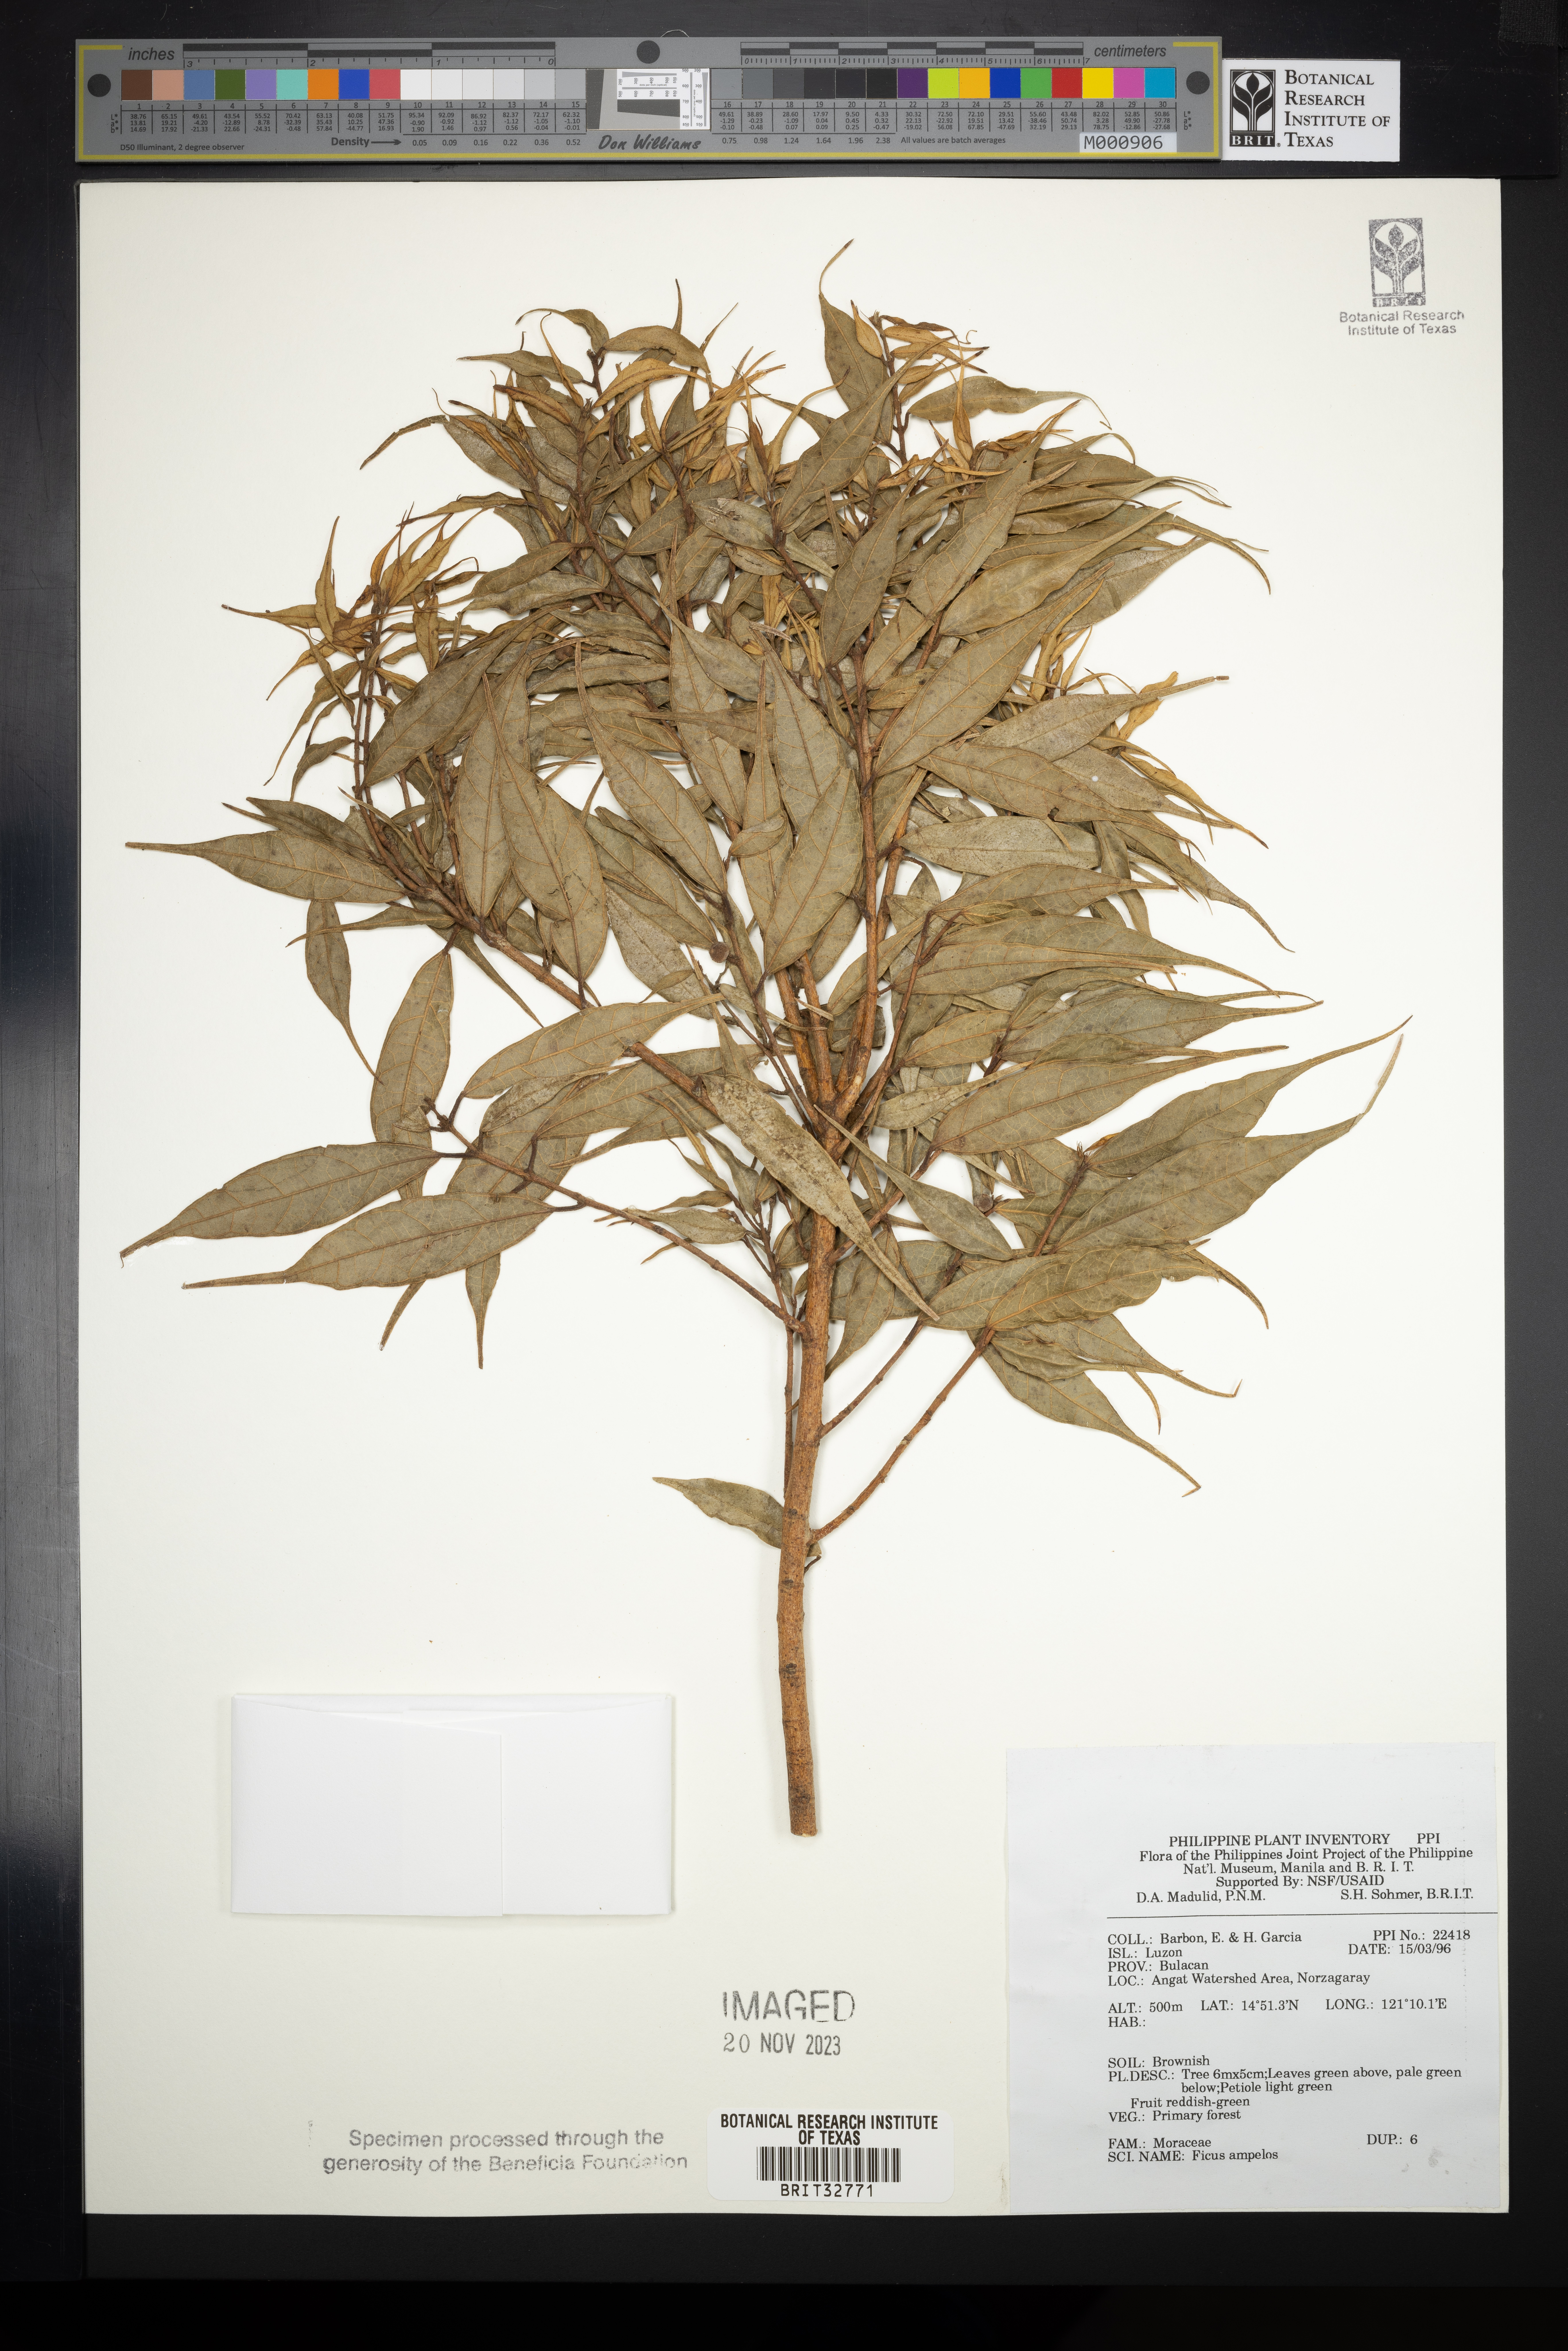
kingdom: Plantae
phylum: Tracheophyta
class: Magnoliopsida
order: Rosales
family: Moraceae
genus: Ficus
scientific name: Ficus ampelos
